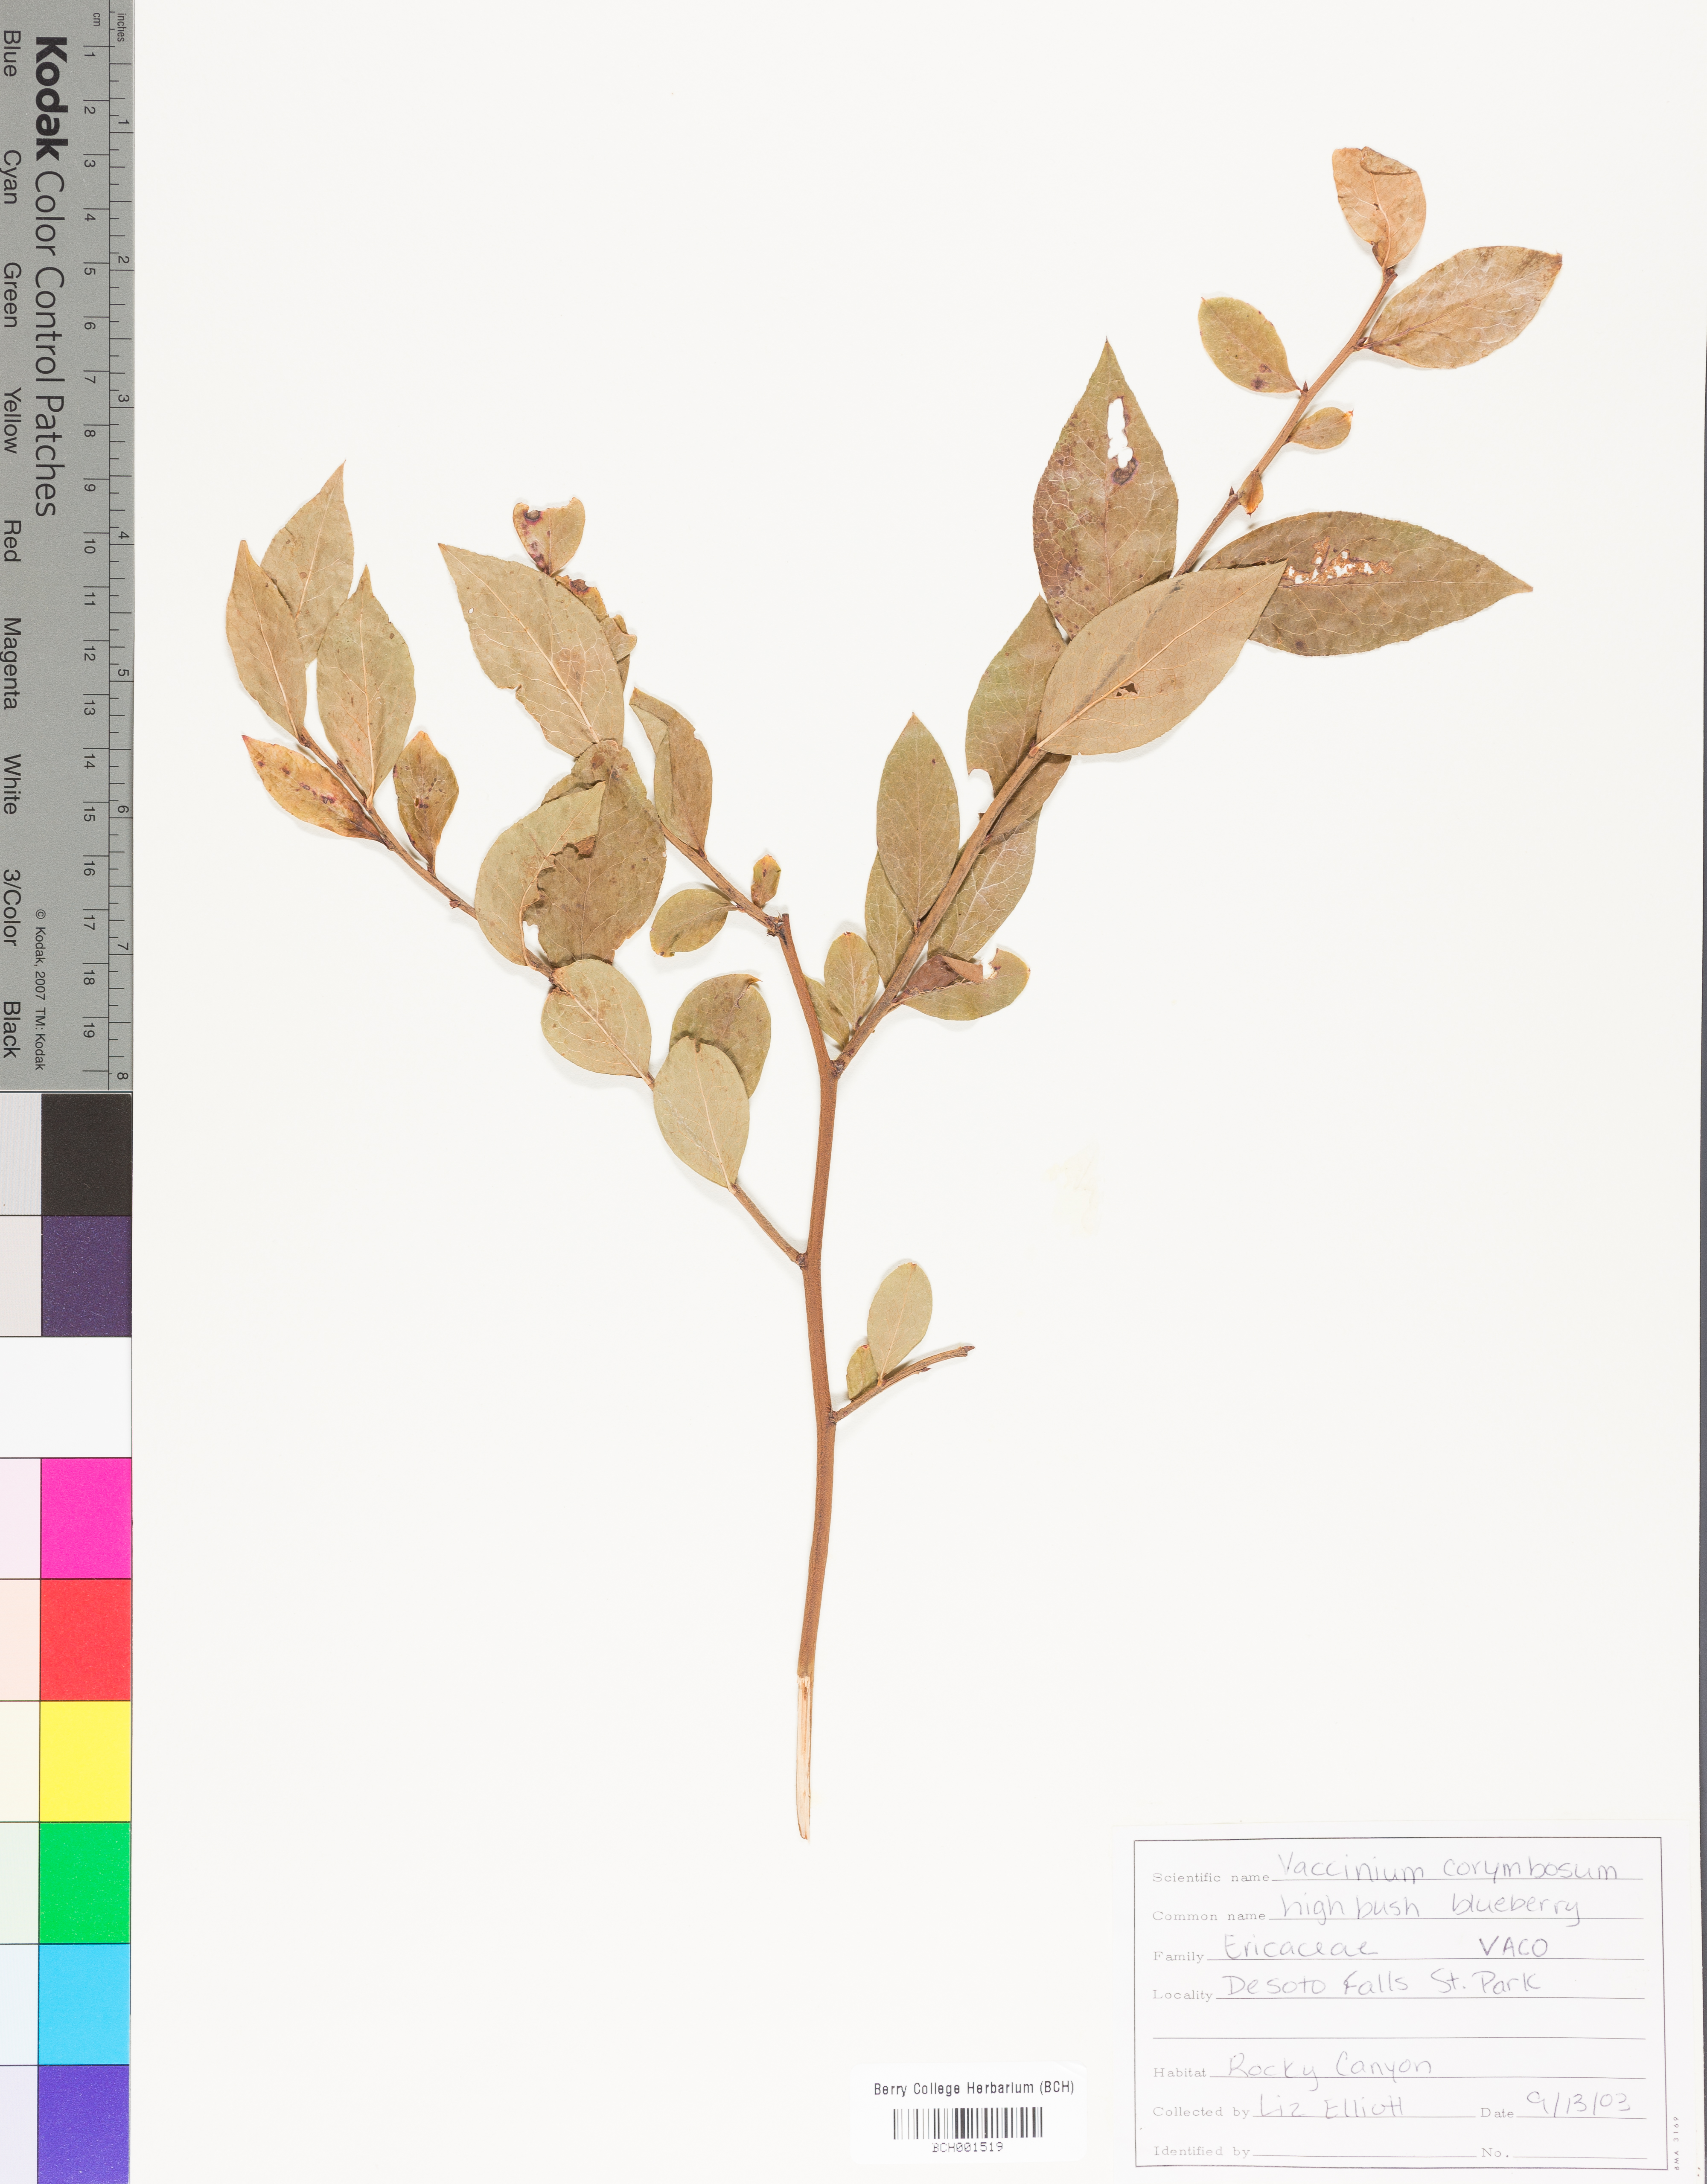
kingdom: Plantae
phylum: Tracheophyta
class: Magnoliopsida
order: Ericales
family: Ericaceae
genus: Vaccinium
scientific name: Vaccinium corymbosum
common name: Blueberry
